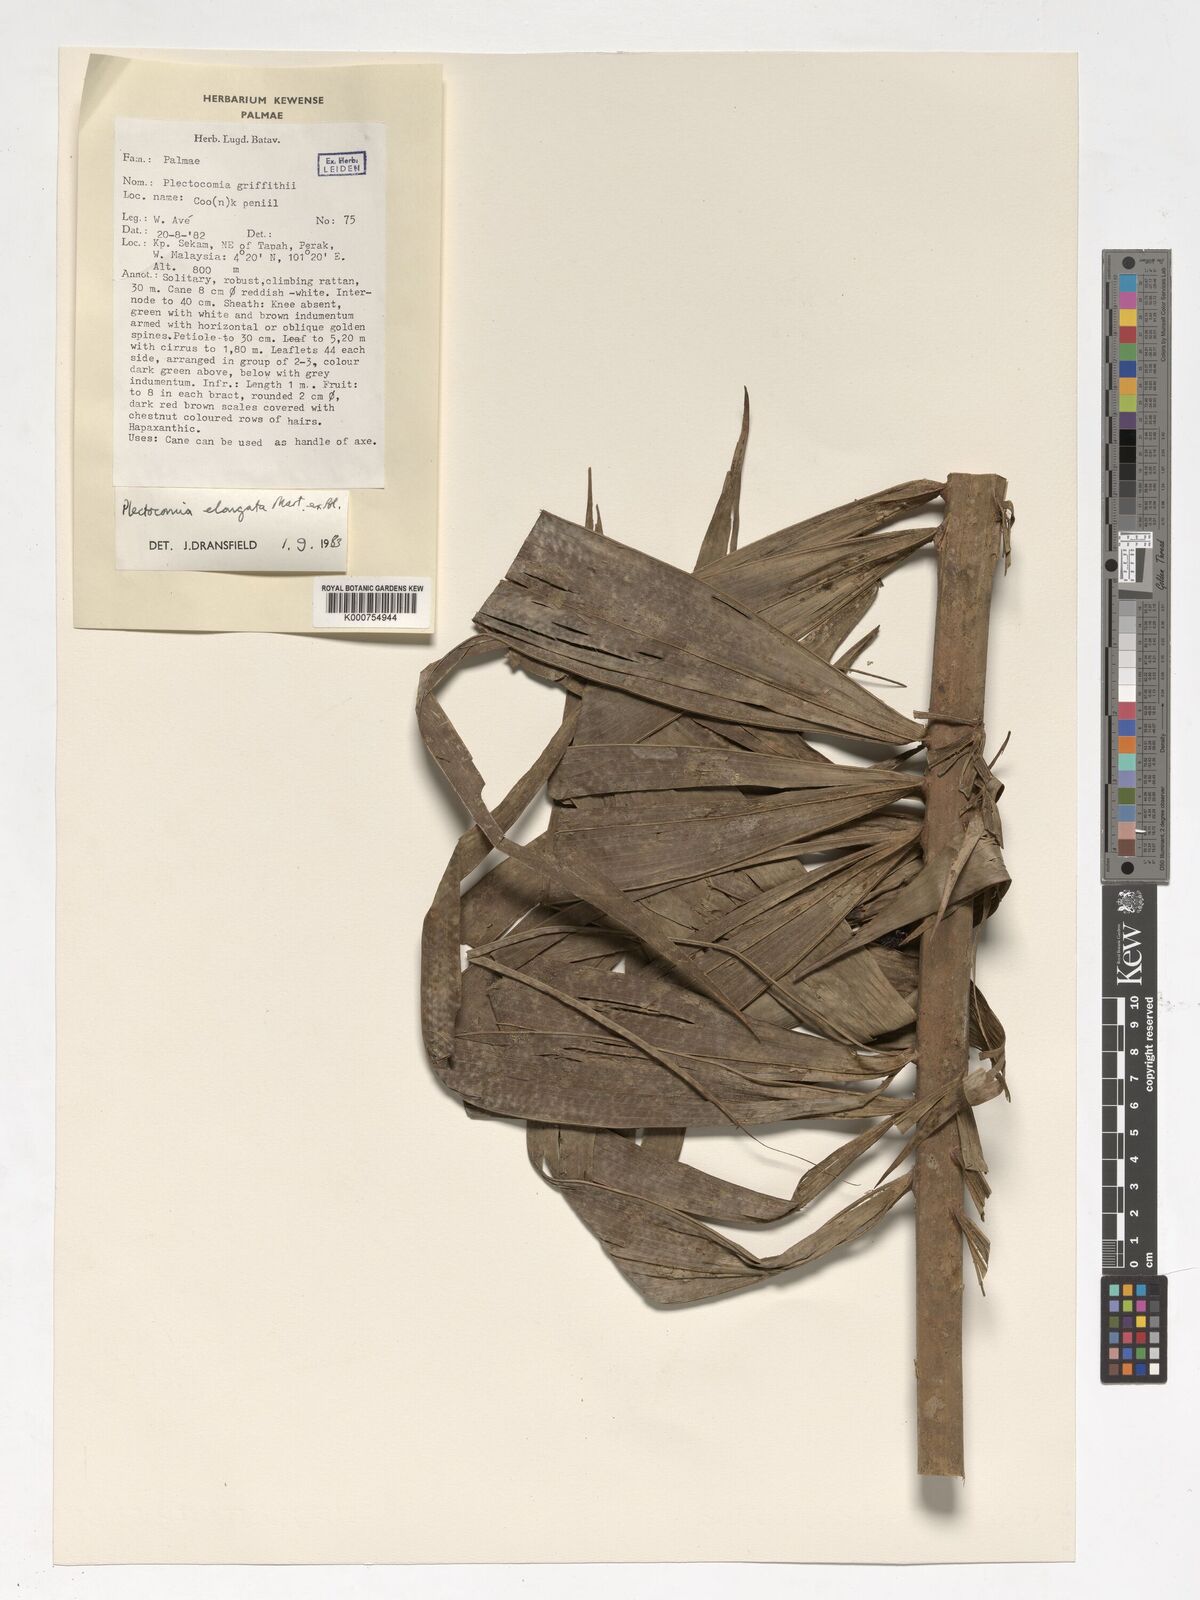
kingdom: Plantae
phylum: Tracheophyta
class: Liliopsida
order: Arecales
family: Arecaceae
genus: Plectocomia
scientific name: Plectocomia elongata
